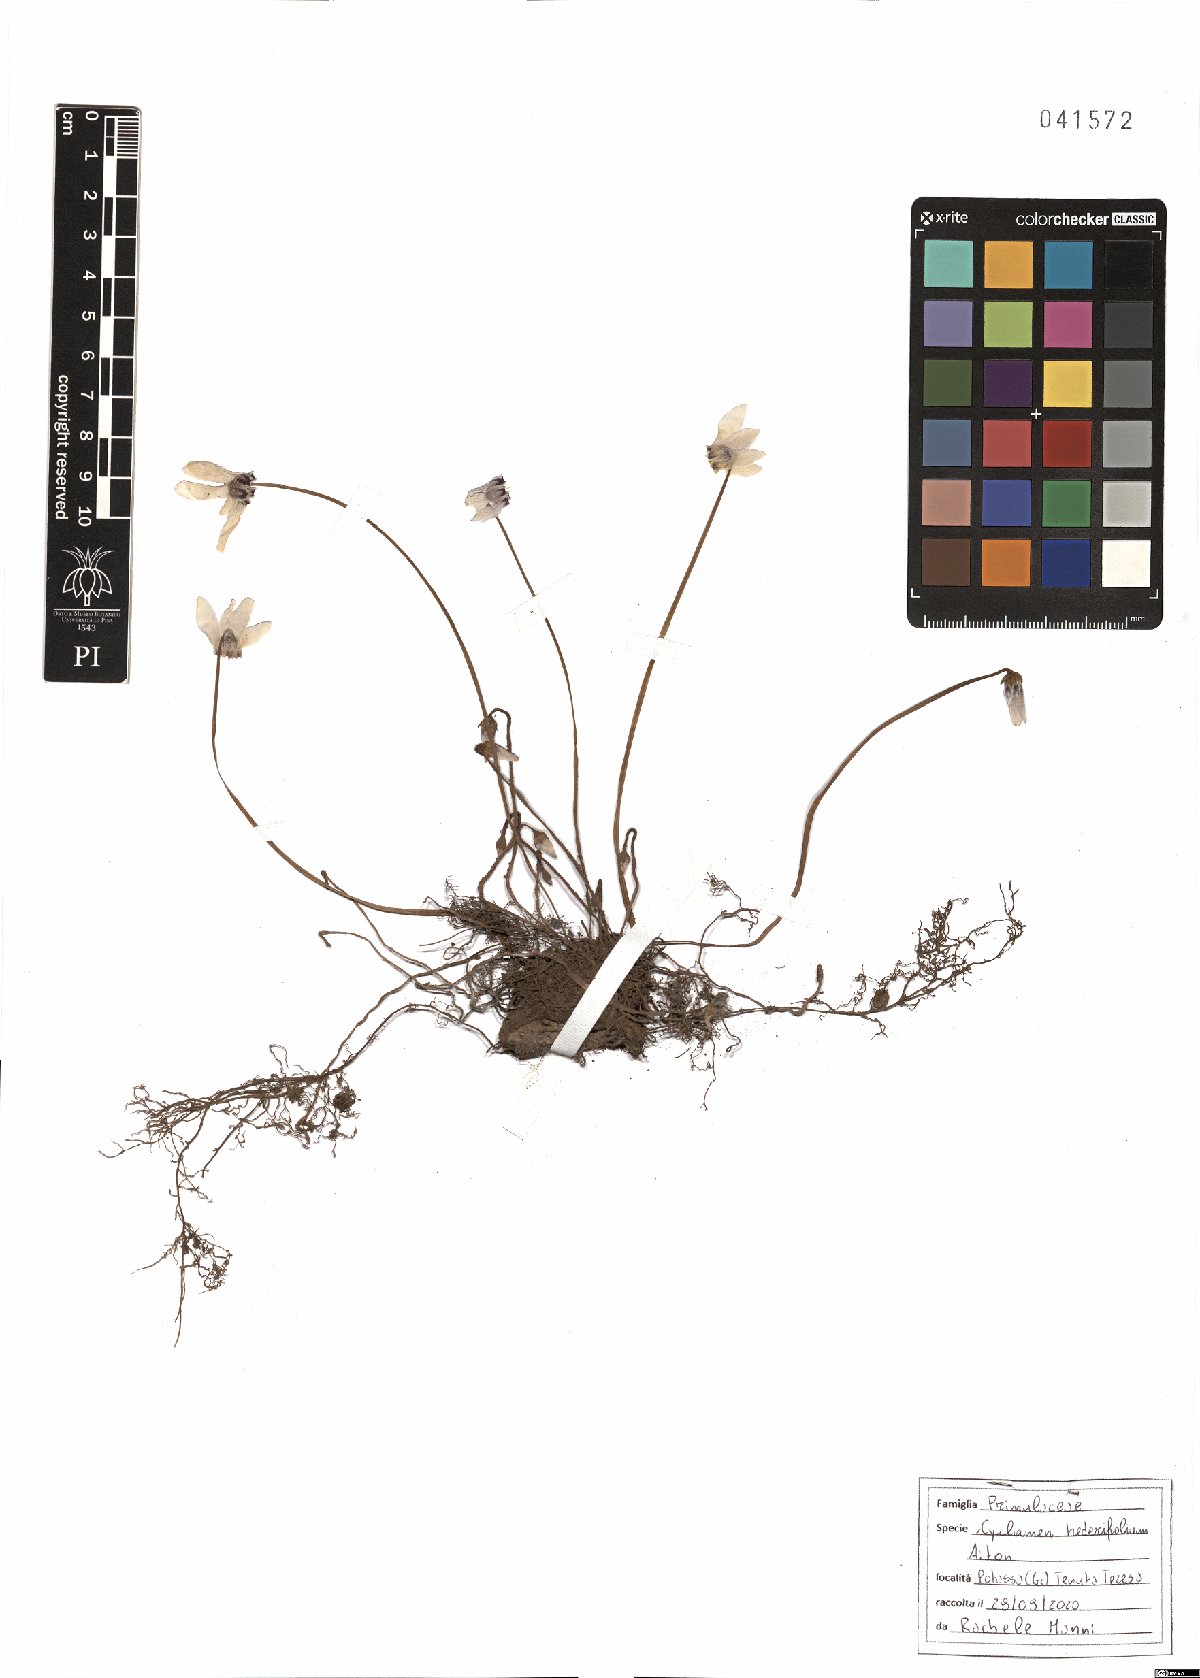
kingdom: Plantae
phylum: Tracheophyta
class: Magnoliopsida
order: Ericales
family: Primulaceae
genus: Cyclamen
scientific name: Cyclamen hederifolium
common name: Sowbread
